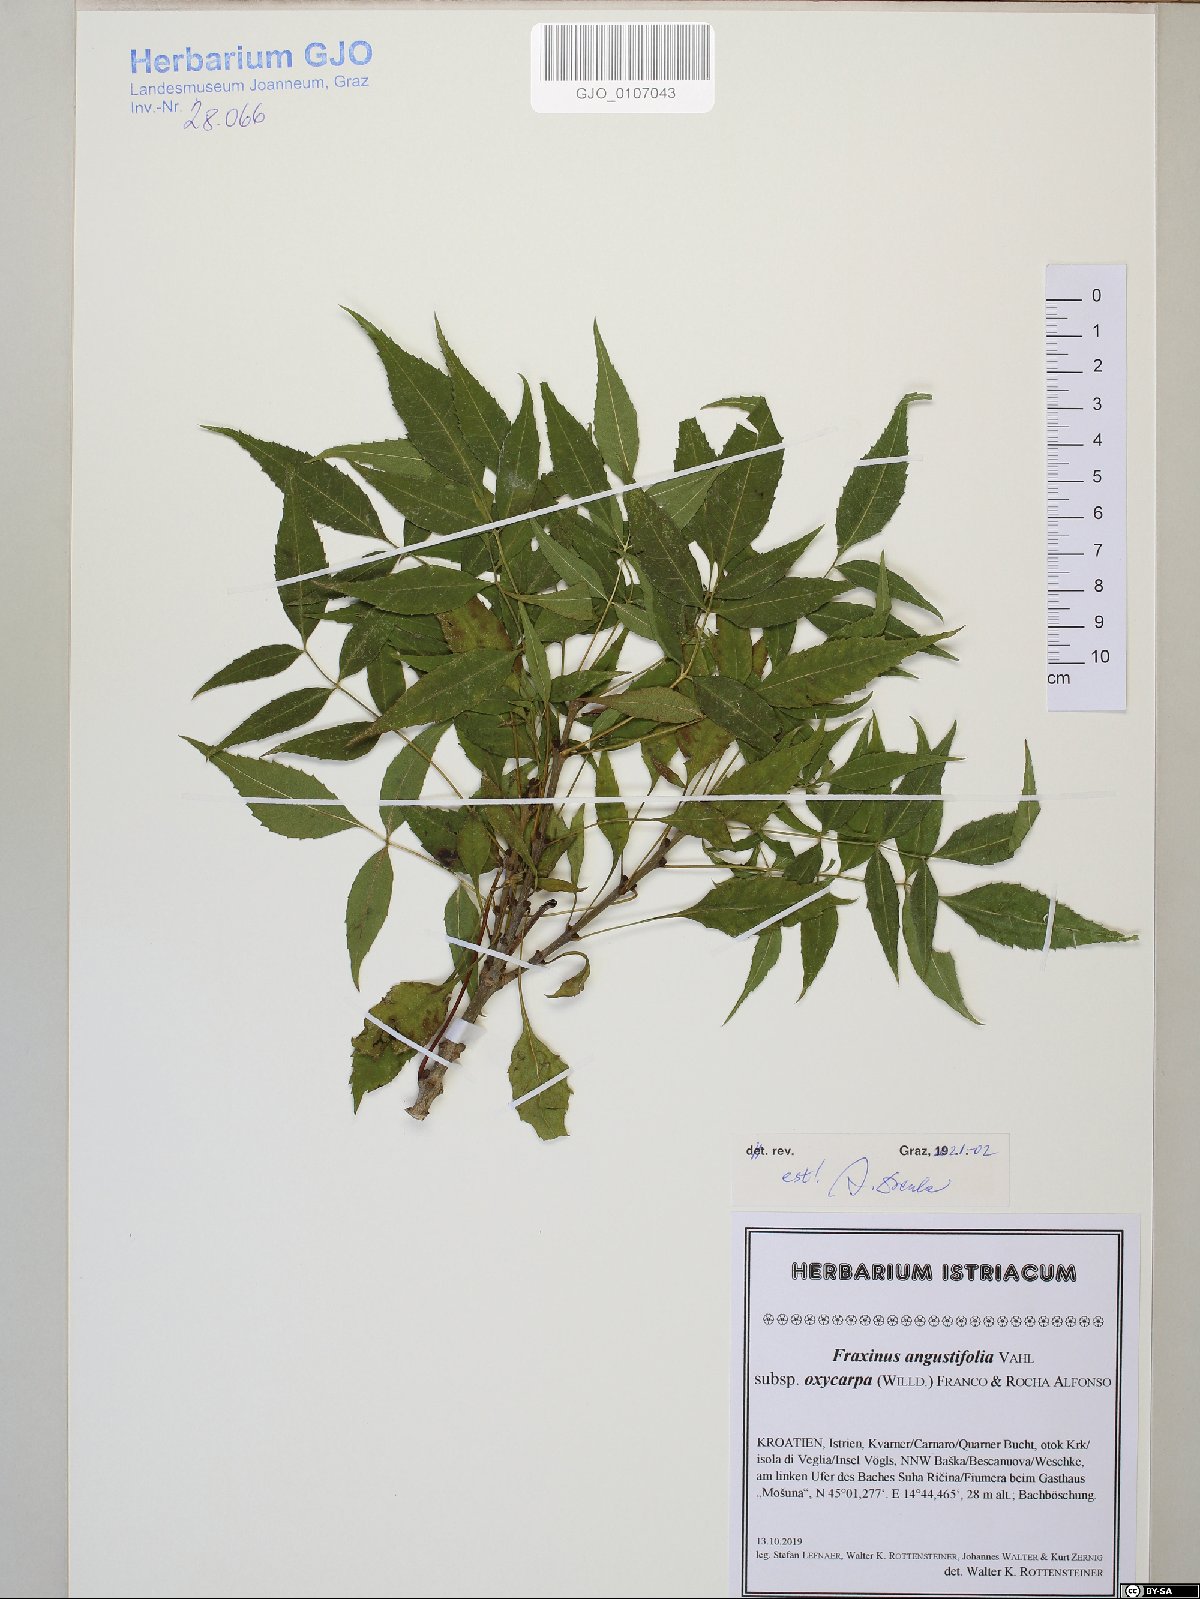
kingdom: Plantae
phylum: Tracheophyta
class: Magnoliopsida
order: Lamiales
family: Oleaceae
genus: Fraxinus
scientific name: Fraxinus angustifolia
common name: Narrow-leafed ash
